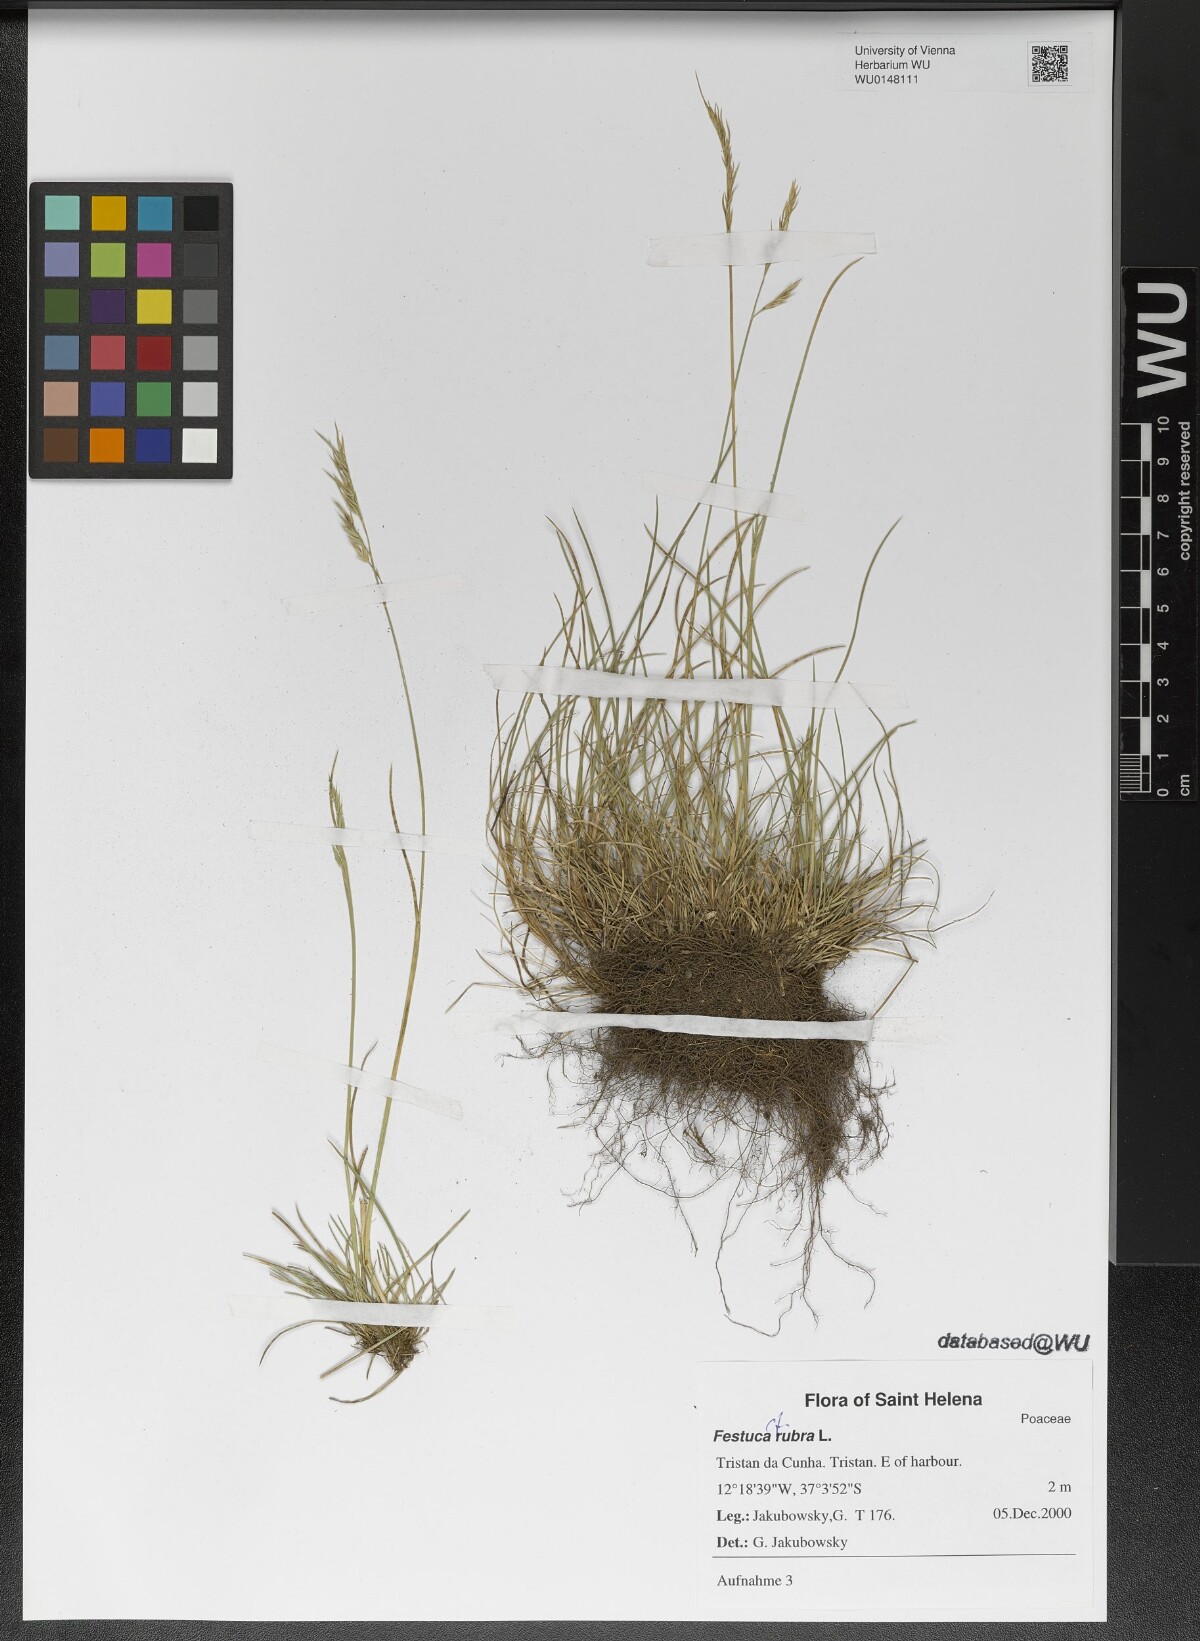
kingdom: Plantae
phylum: Tracheophyta
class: Liliopsida
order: Poales
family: Poaceae
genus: Festuca
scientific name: Festuca rubra
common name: Red fescue
